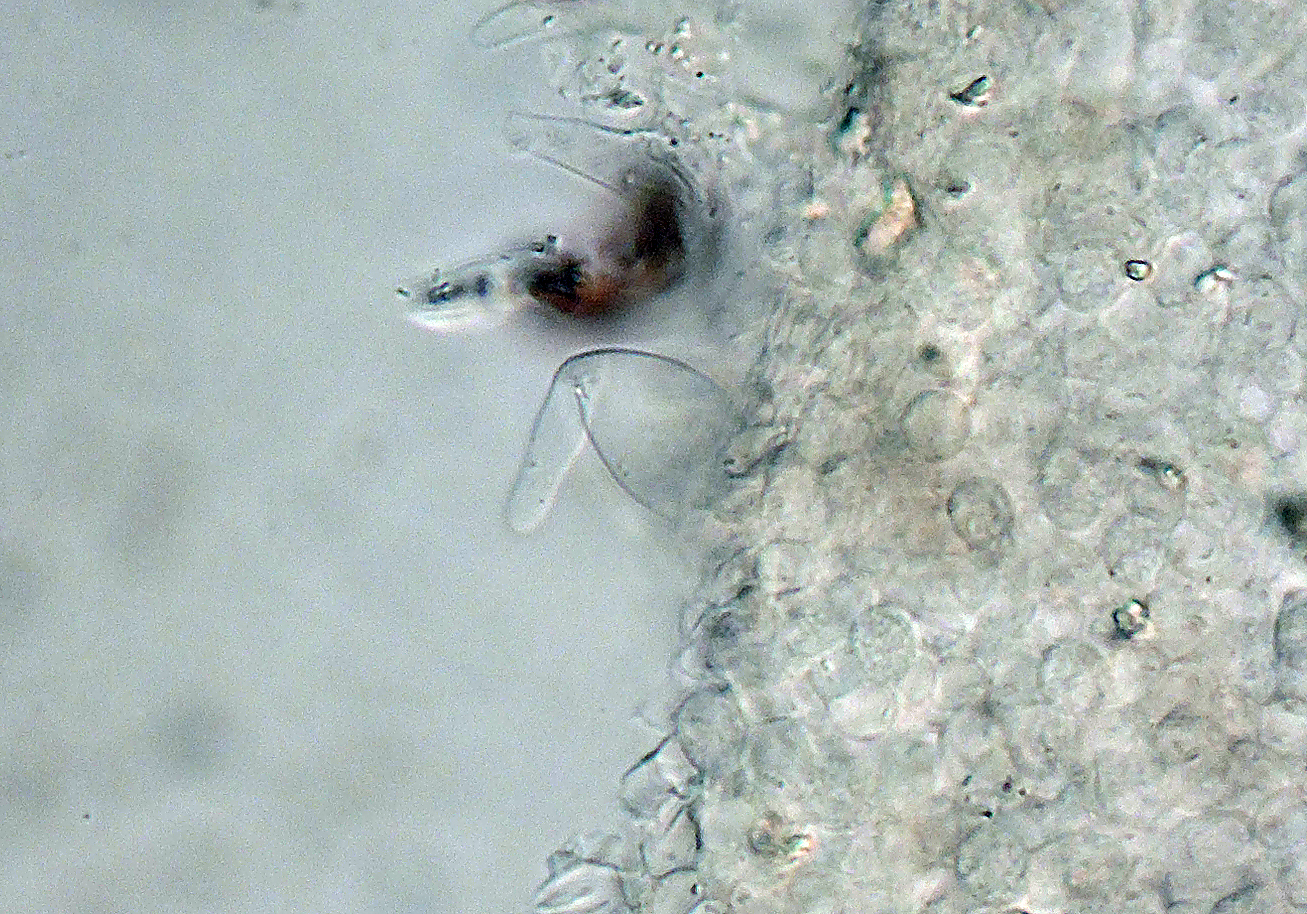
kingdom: Fungi
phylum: Basidiomycota
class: Agaricomycetes
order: Agaricales
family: Psathyrellaceae
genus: Psathyrella
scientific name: Psathyrella corrugis
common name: rødægget mørkhat
